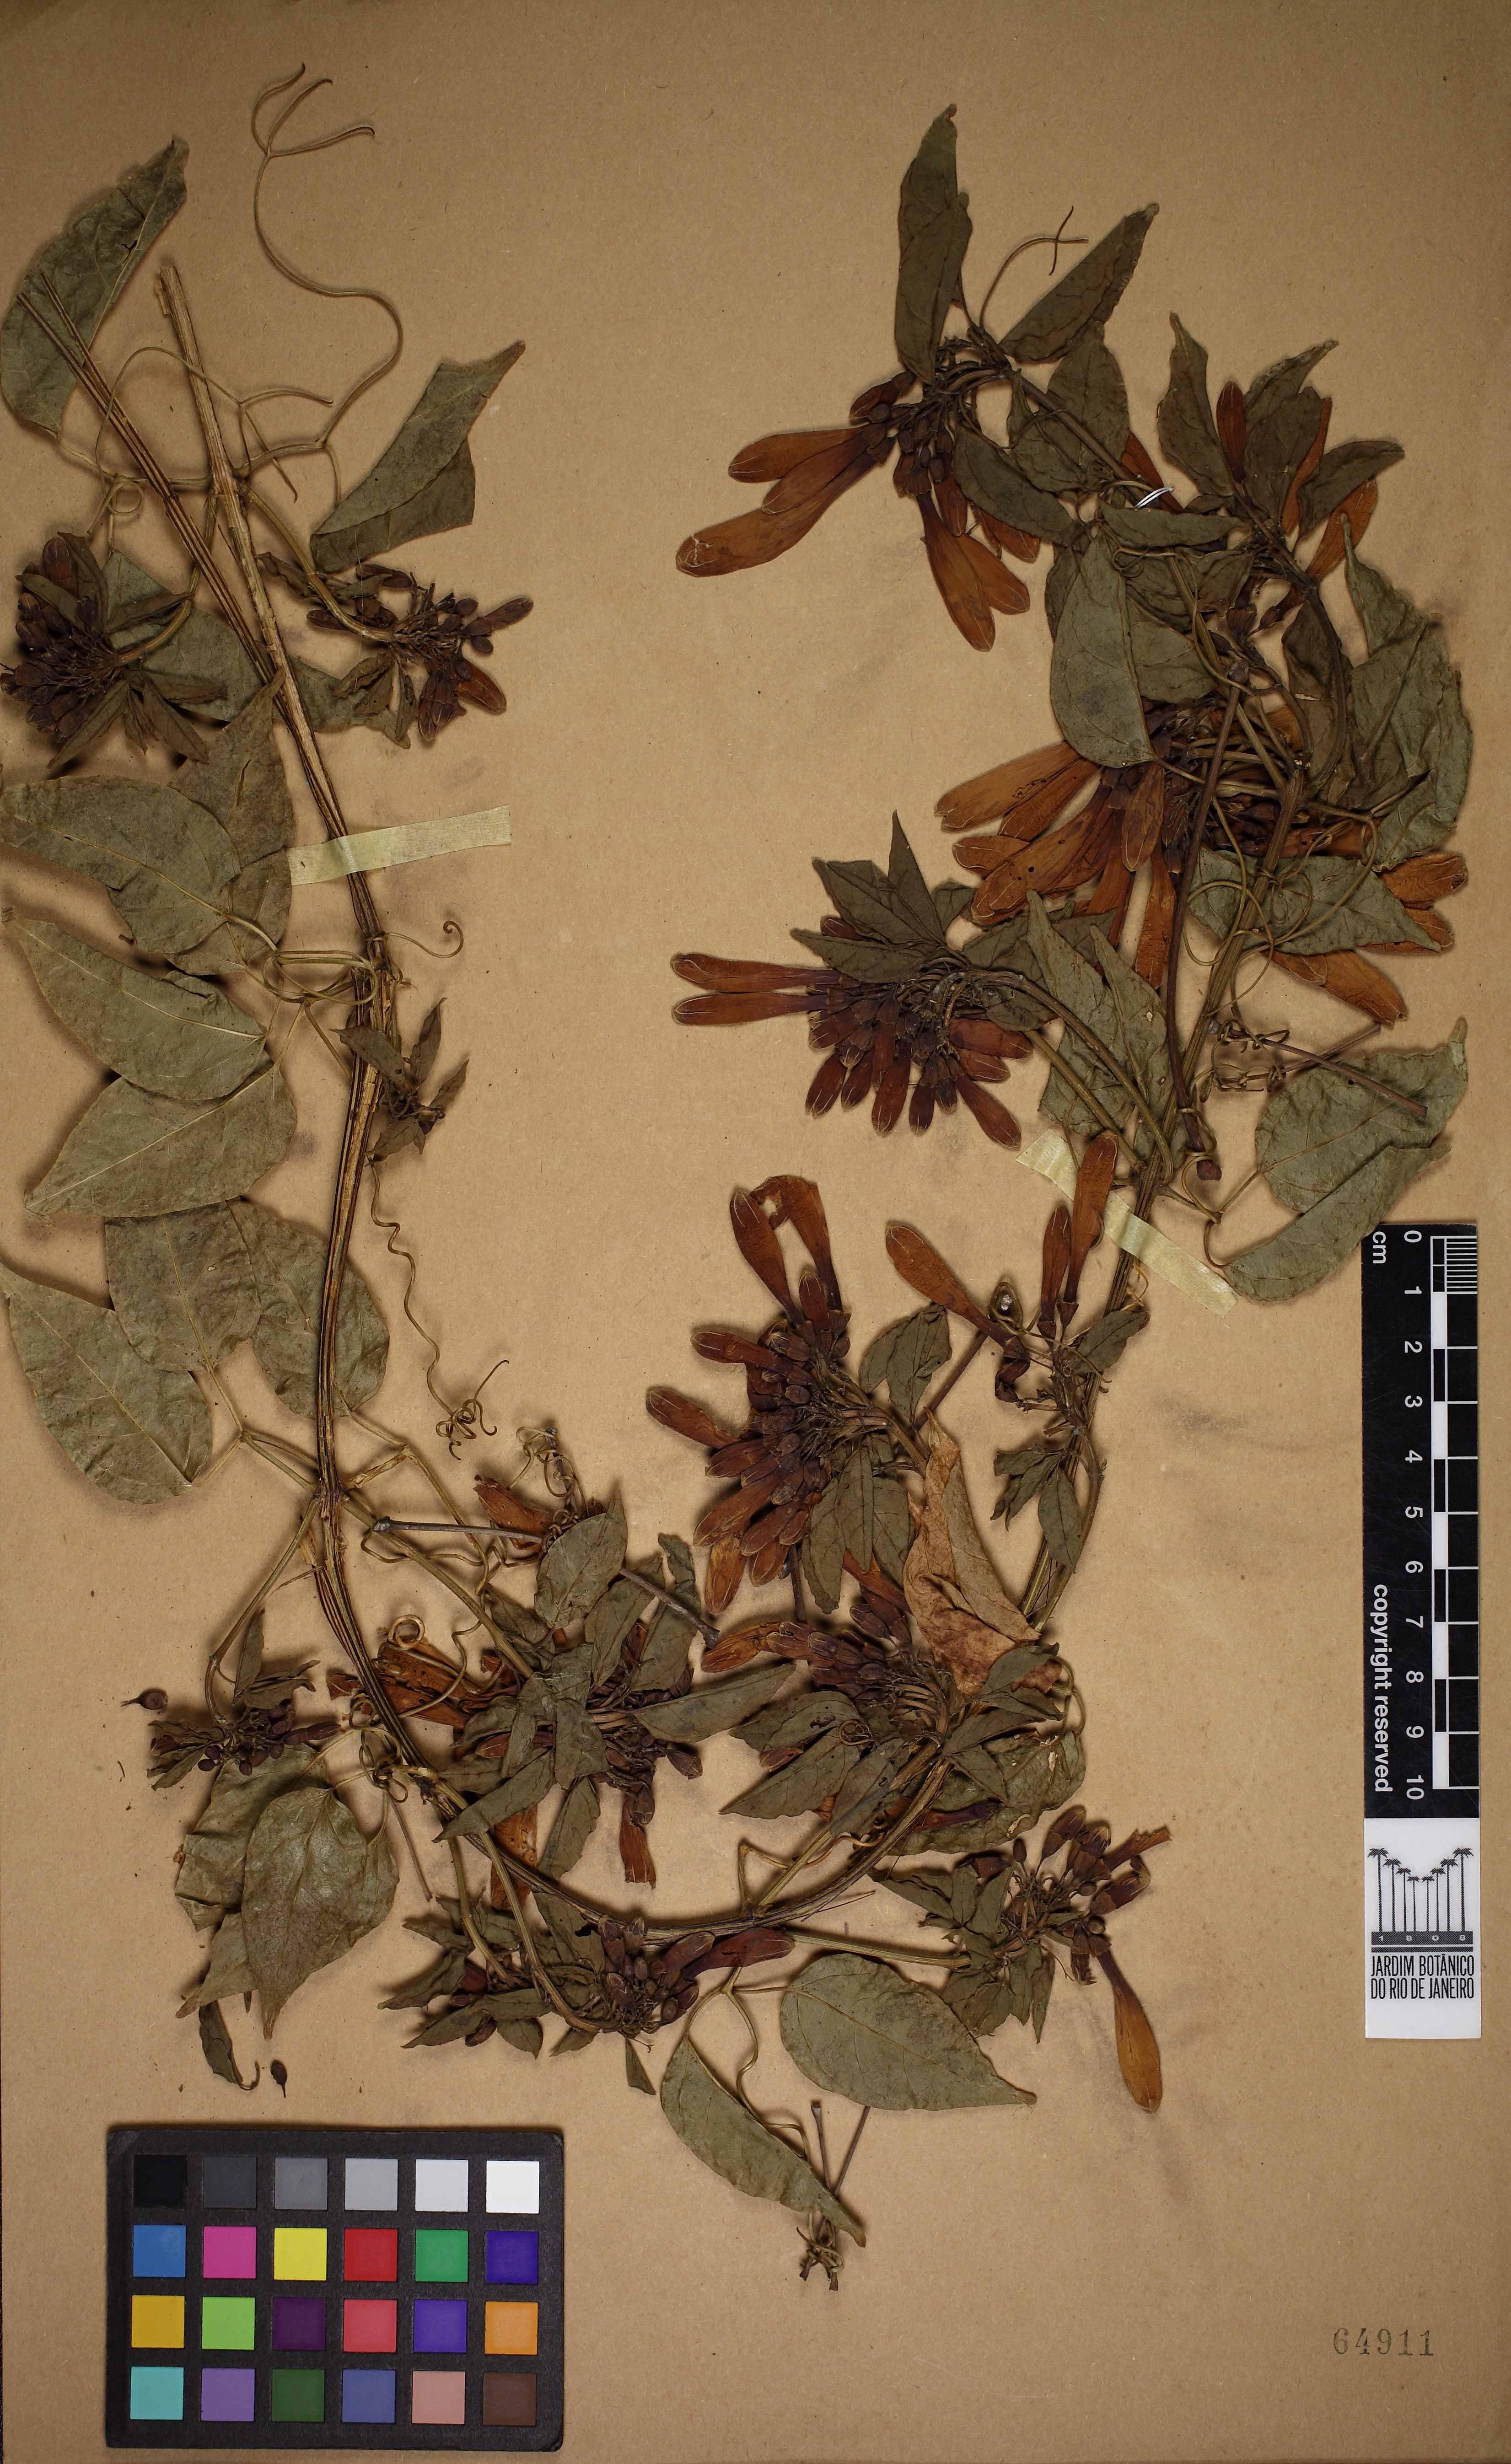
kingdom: Plantae
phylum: Tracheophyta
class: Magnoliopsida
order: Lamiales
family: Bignoniaceae
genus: Pyrostegia
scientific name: Pyrostegia venusta
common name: Flamevine
